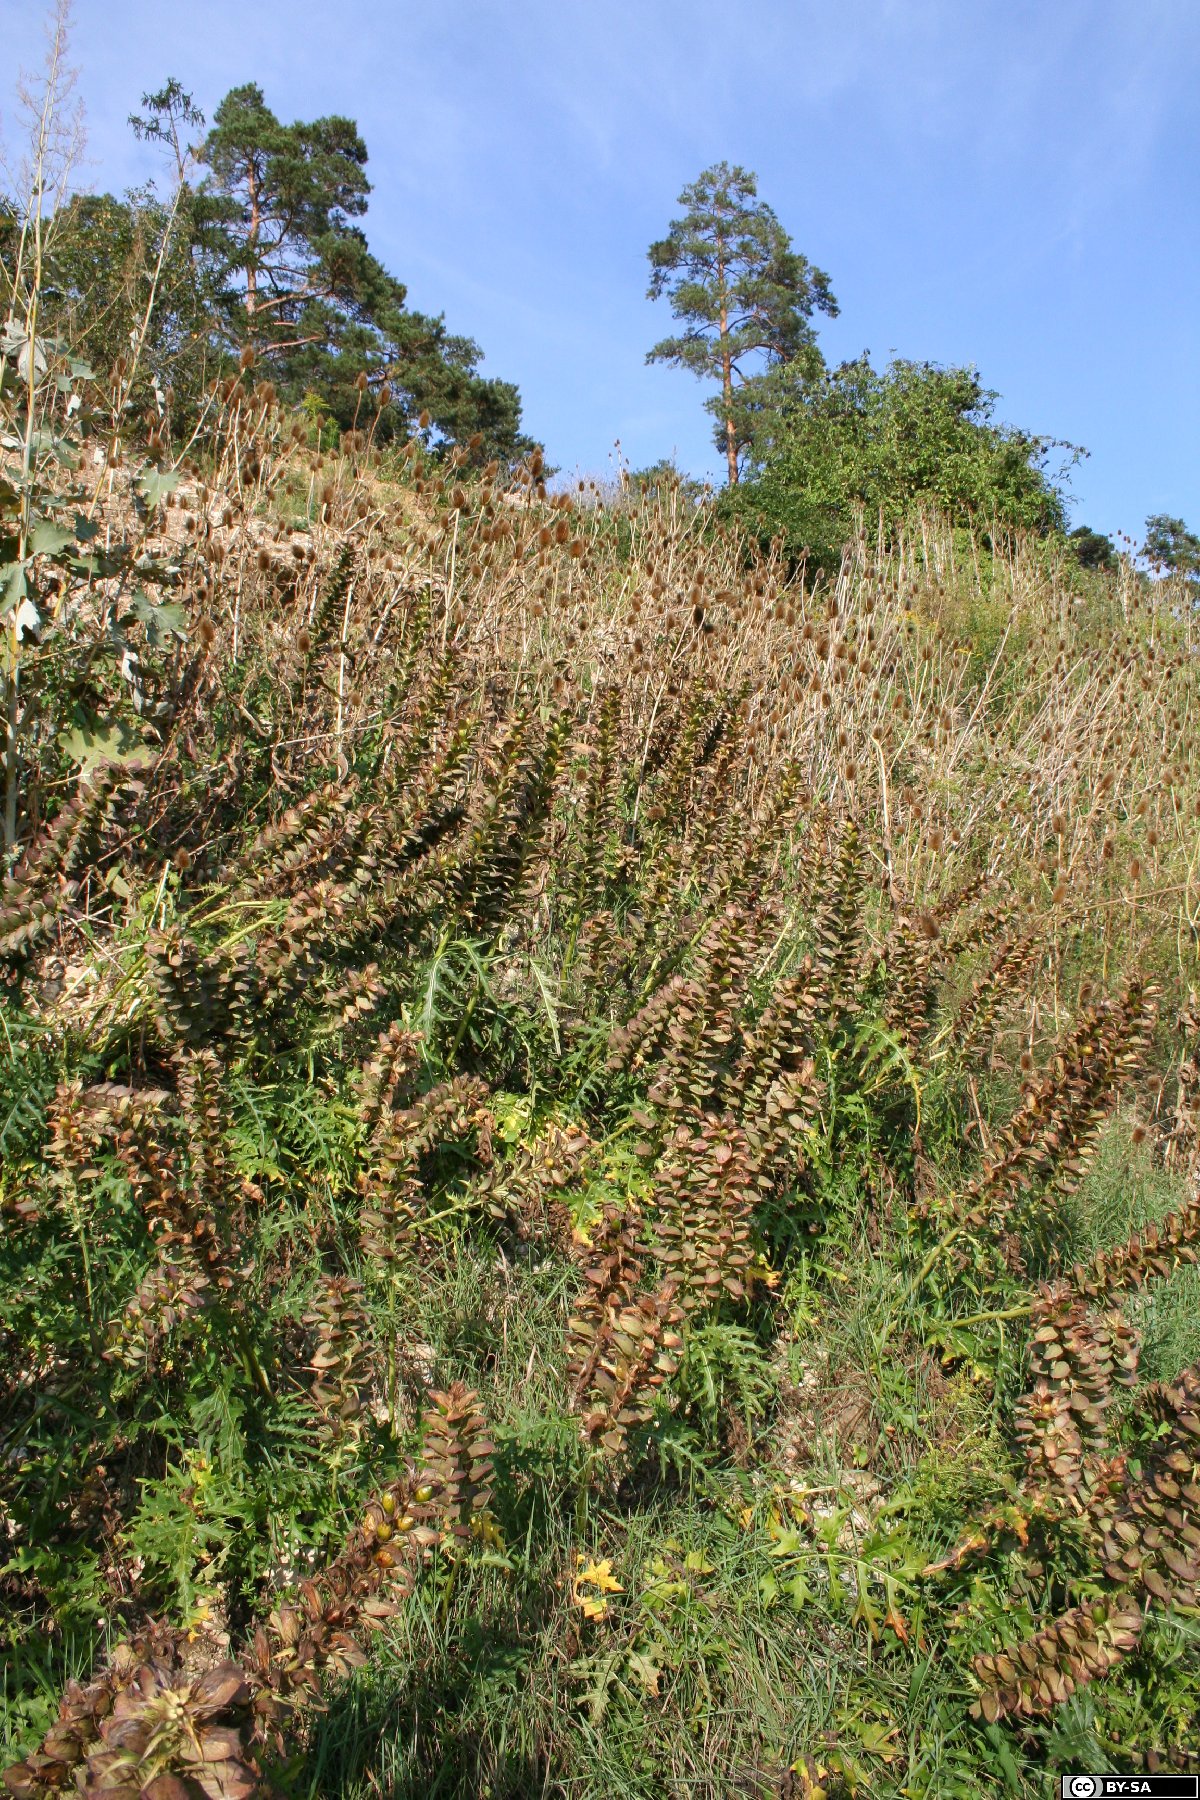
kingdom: Plantae
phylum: Tracheophyta
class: Magnoliopsida
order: Lamiales
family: Acanthaceae
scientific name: Acanthaceae
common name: Acanthaceae
